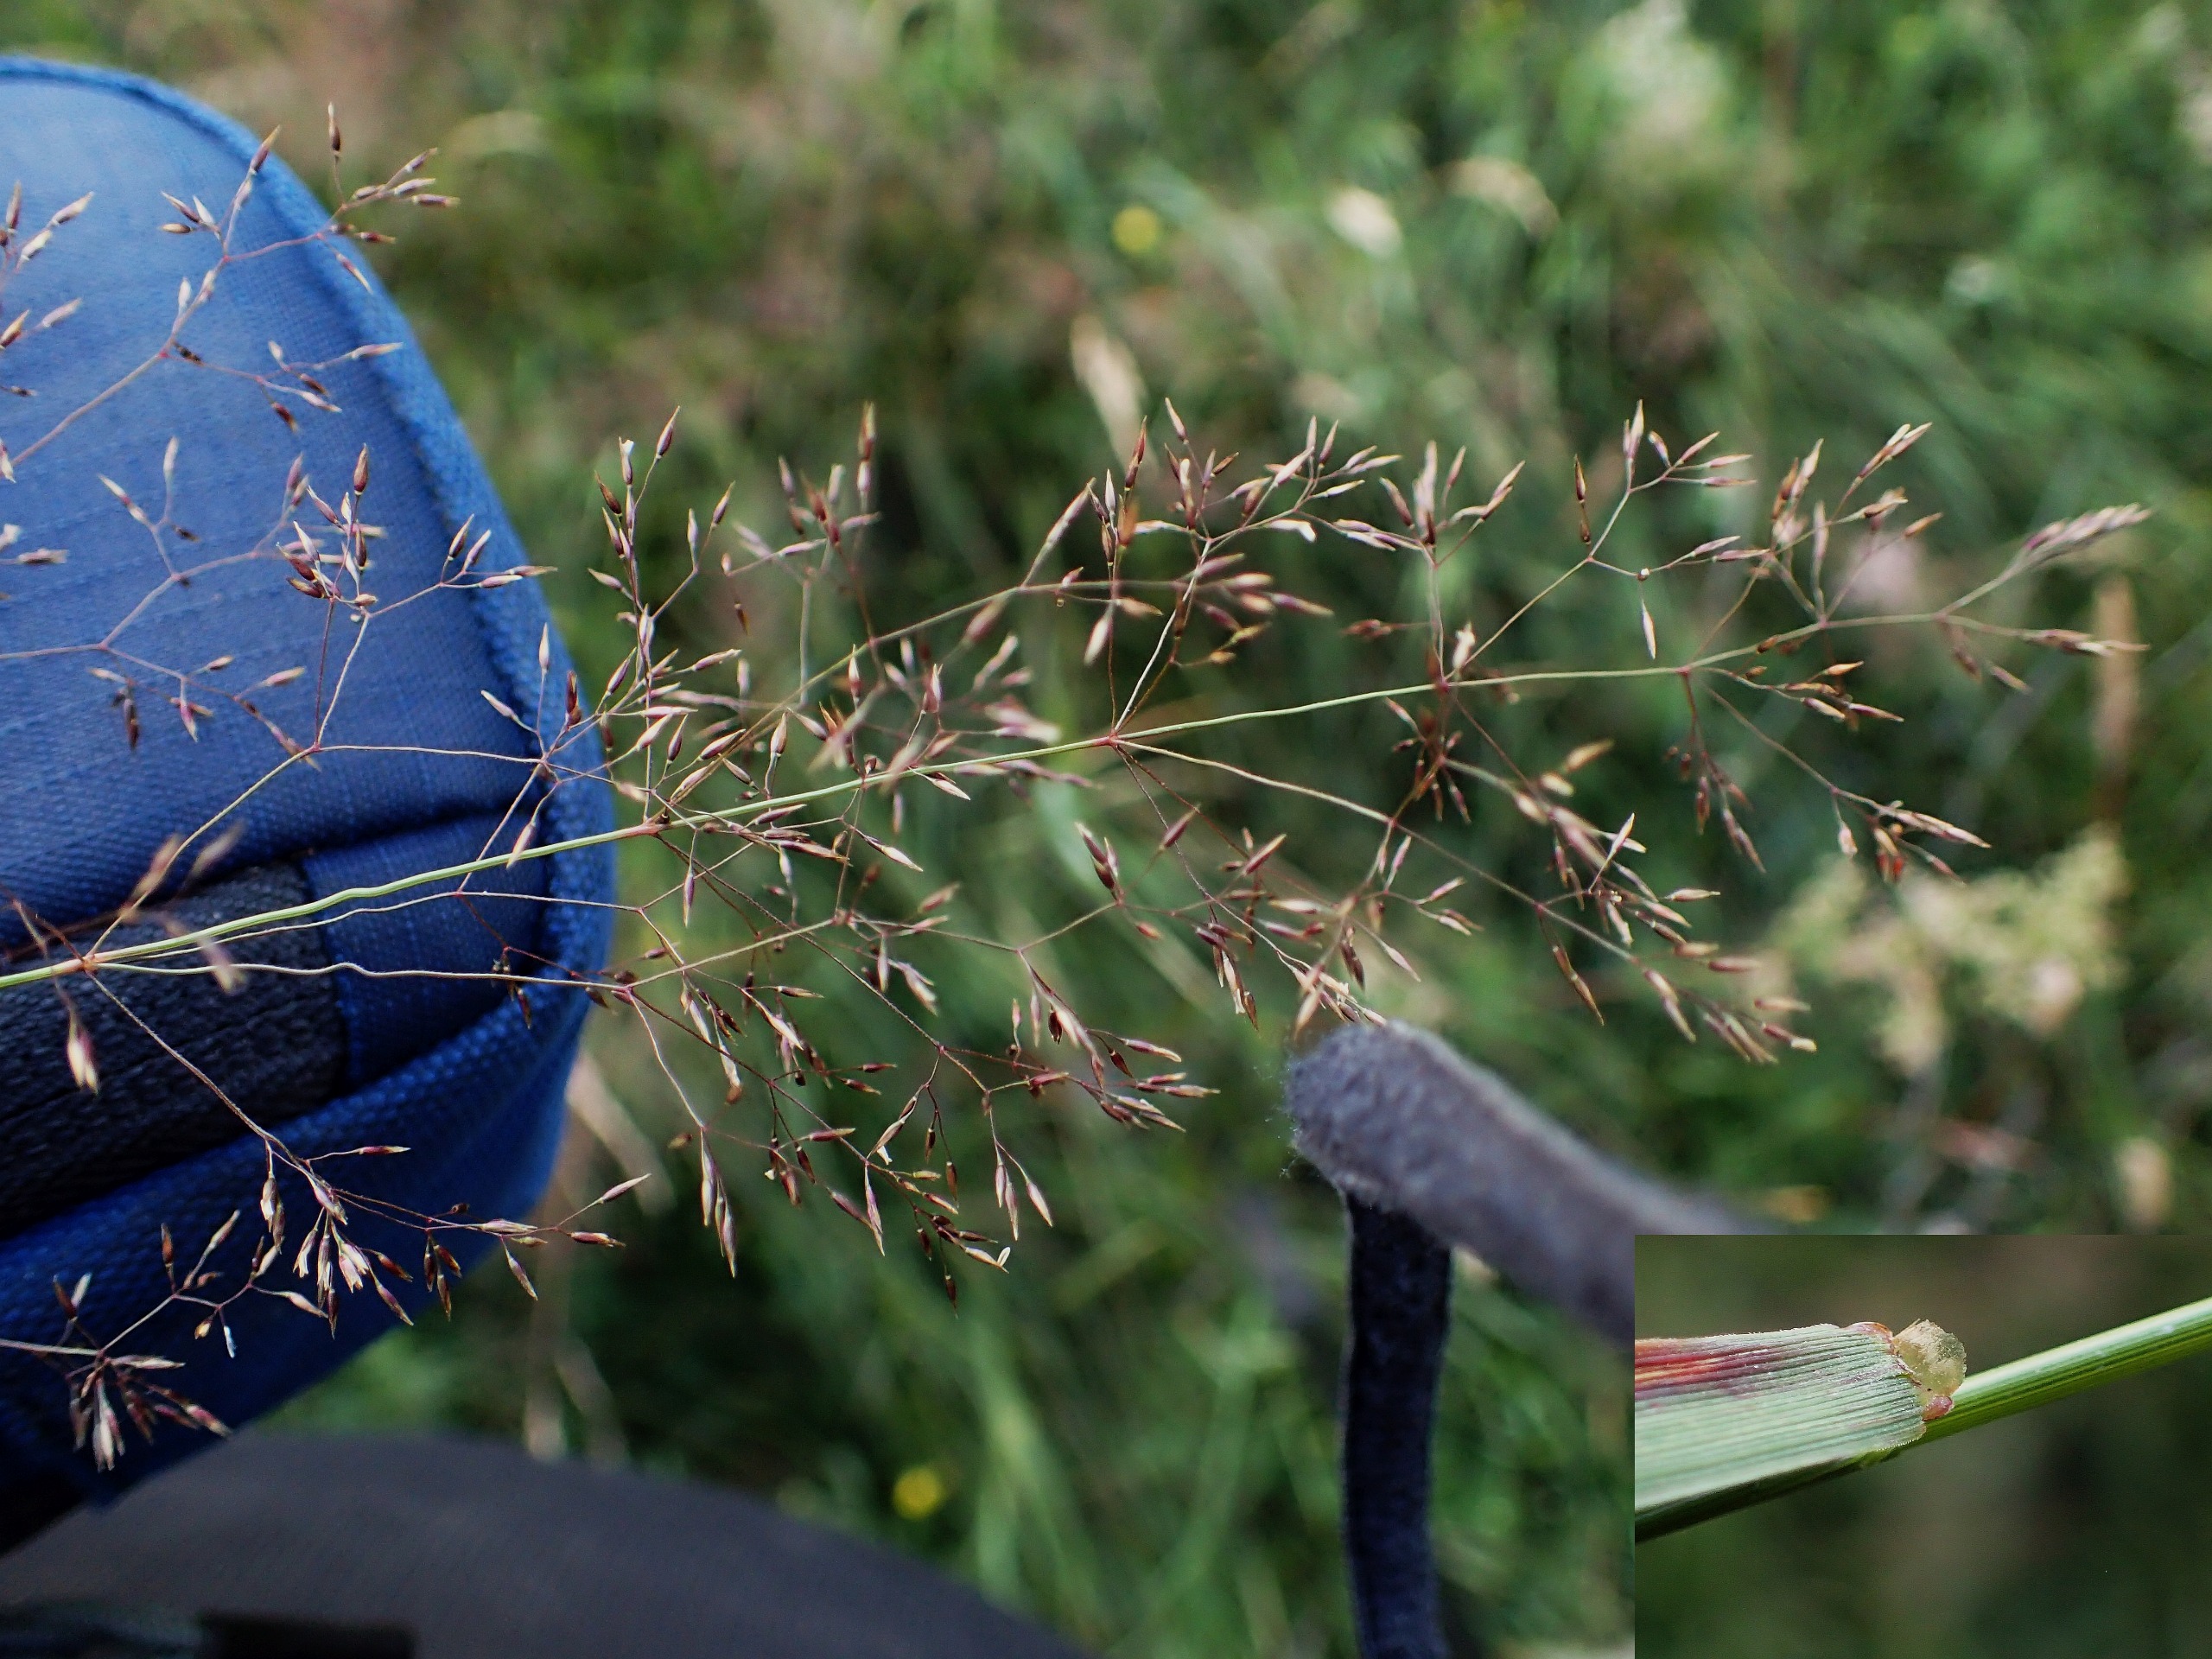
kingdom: Plantae
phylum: Tracheophyta
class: Liliopsida
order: Poales
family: Poaceae
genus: Agrostis
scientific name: Agrostis capillaris
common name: Almindelig hvene
